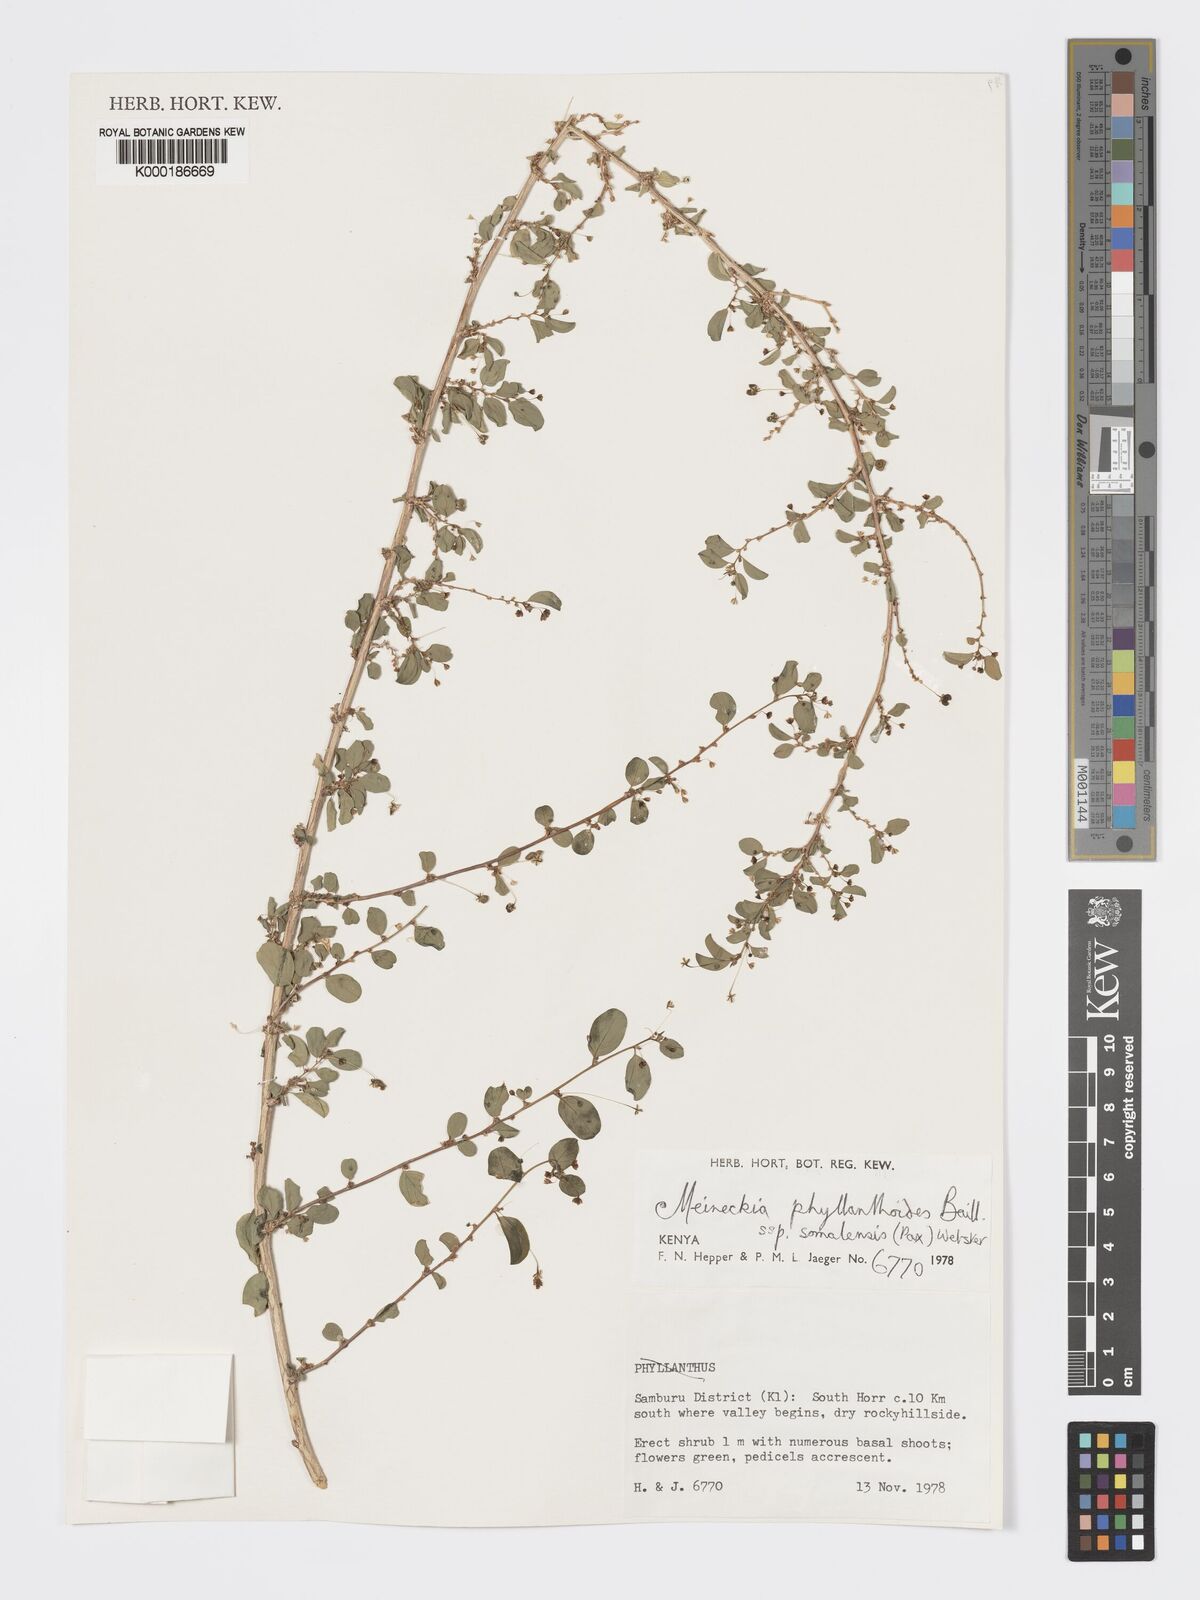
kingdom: Plantae
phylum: Tracheophyta
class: Magnoliopsida
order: Malpighiales
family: Phyllanthaceae
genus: Meineckia
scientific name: Meineckia phyllanthoides
